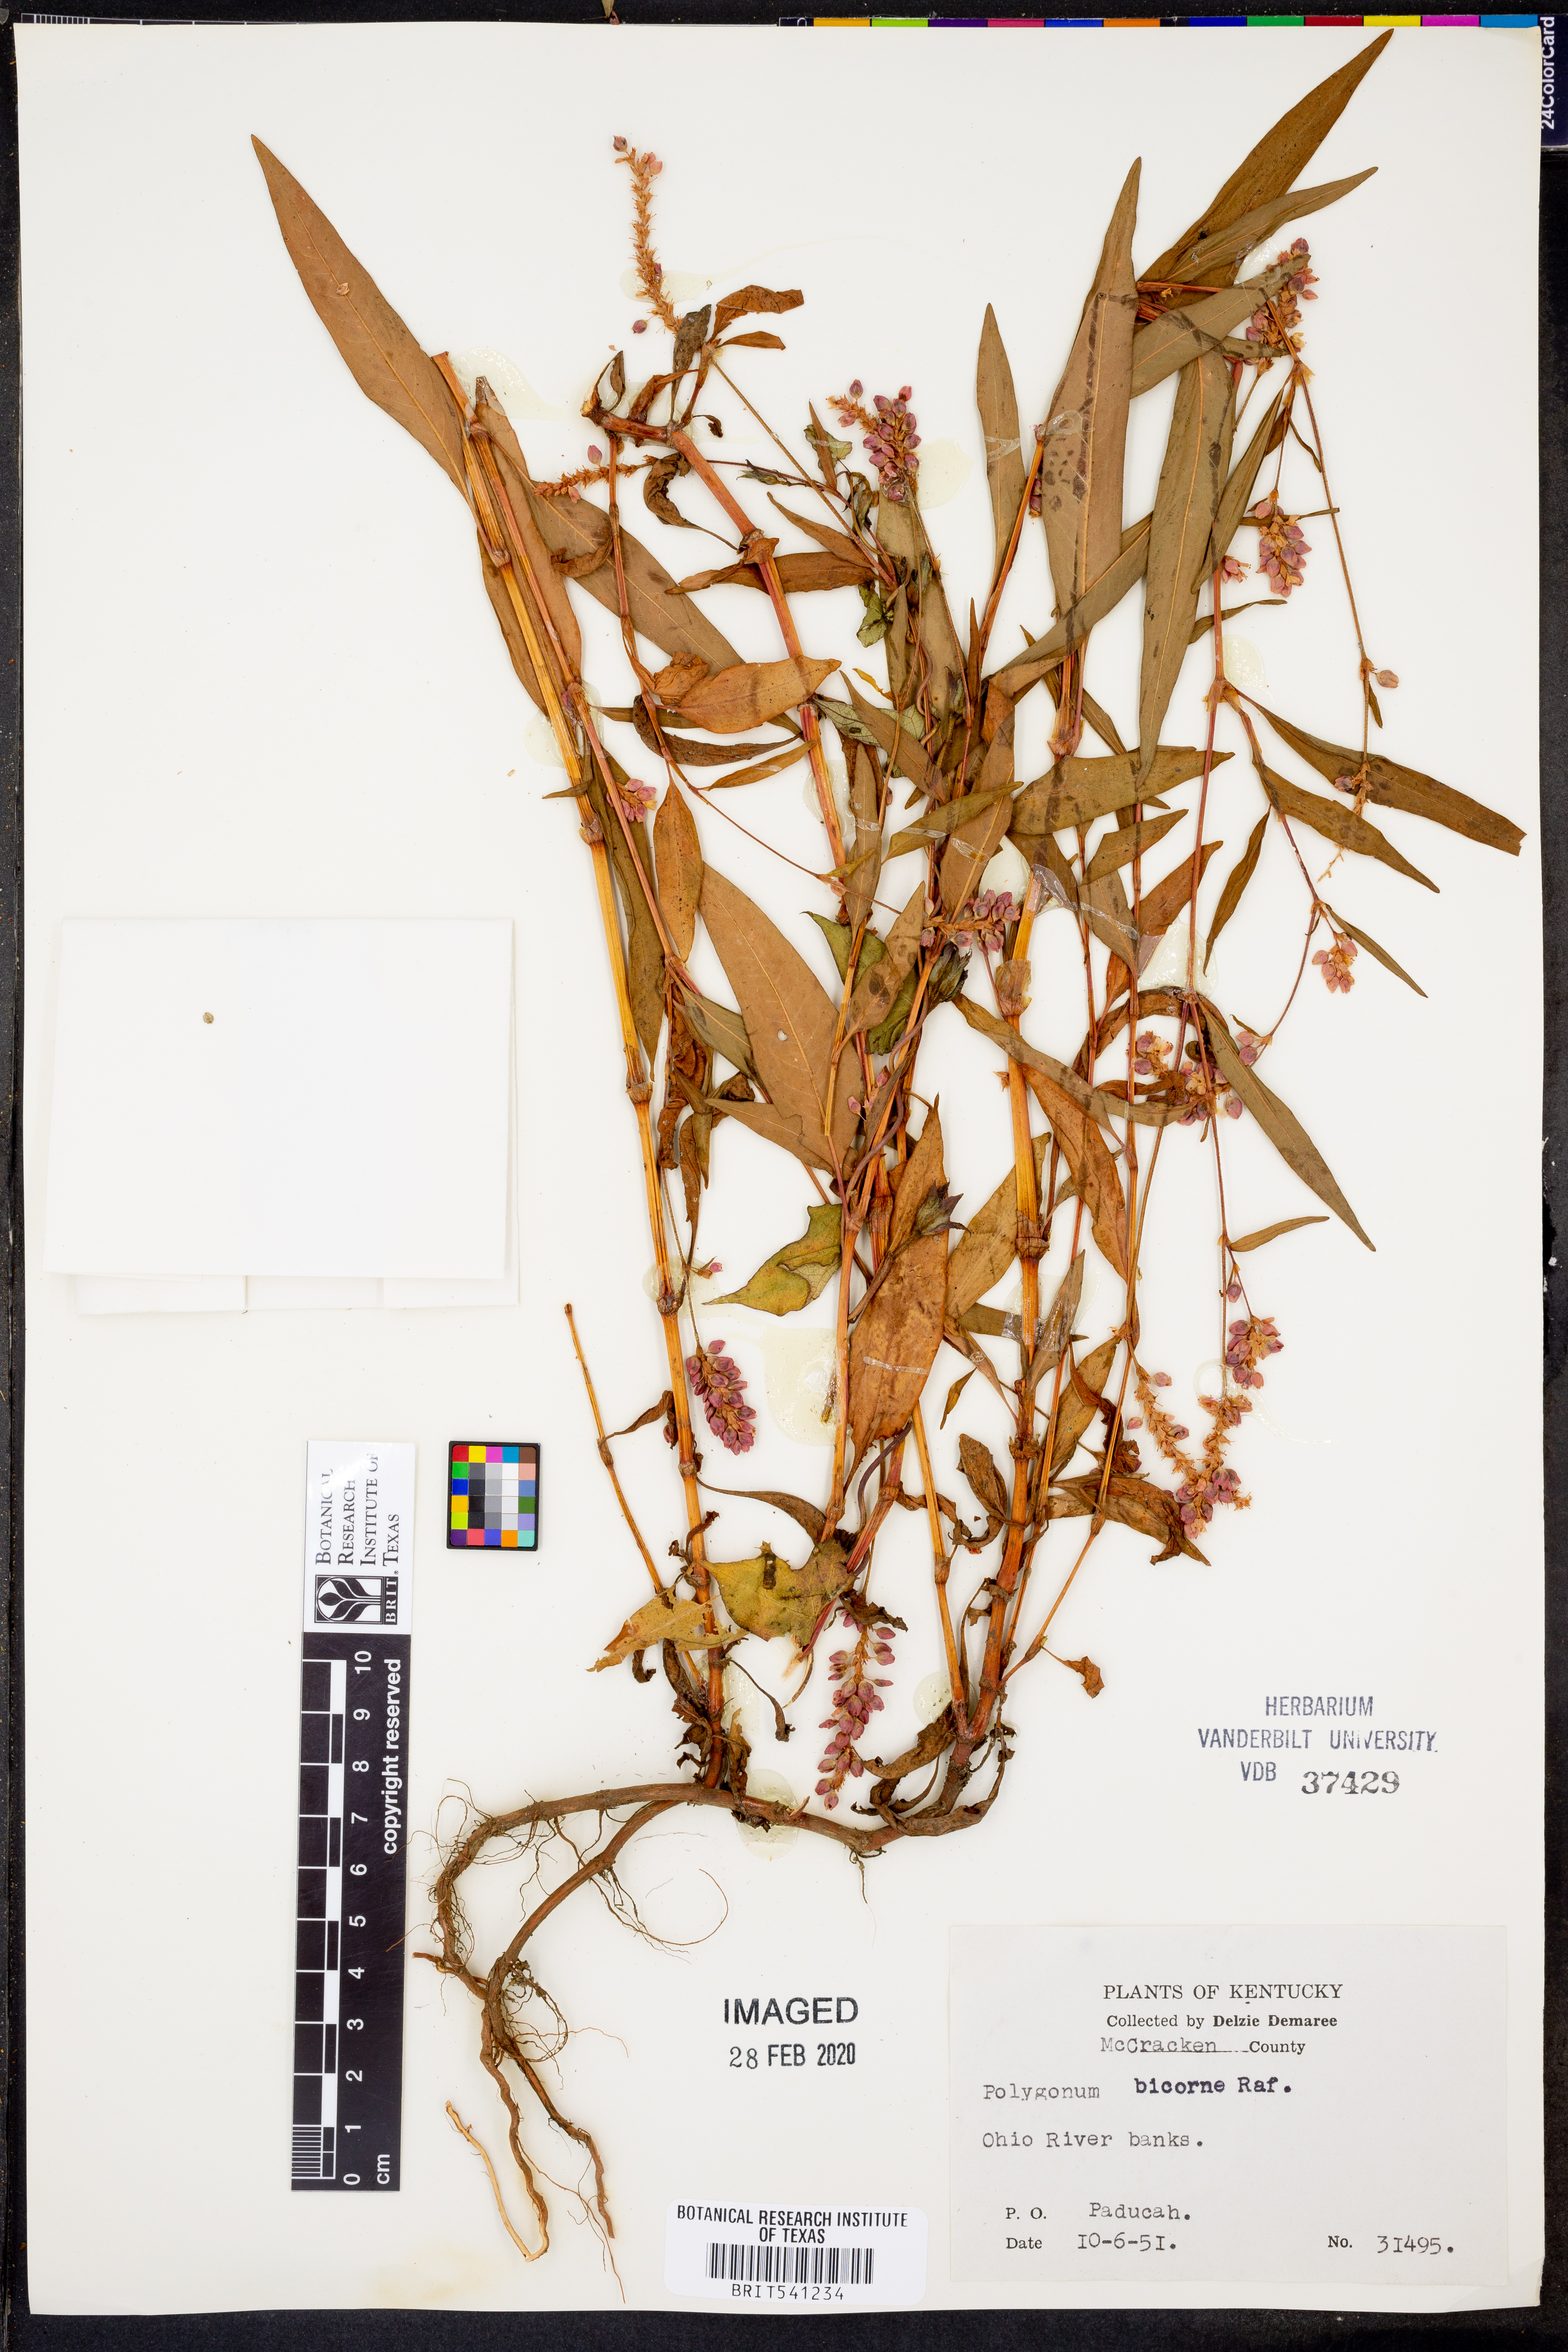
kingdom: Plantae
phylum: Tracheophyta
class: Magnoliopsida
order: Caryophyllales
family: Polygonaceae
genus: Persicaria
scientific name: Persicaria bicornis
